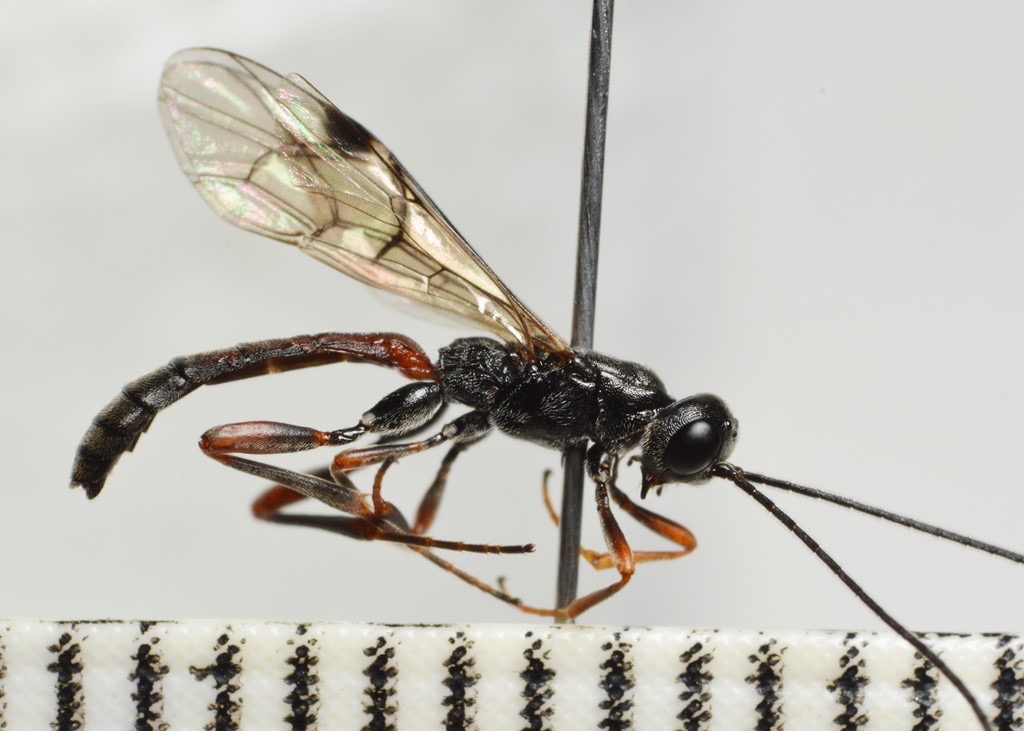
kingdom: Animalia
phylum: Arthropoda
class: Insecta
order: Hymenoptera
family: Ichneumonidae
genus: Xorides
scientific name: Xorides irrigator
